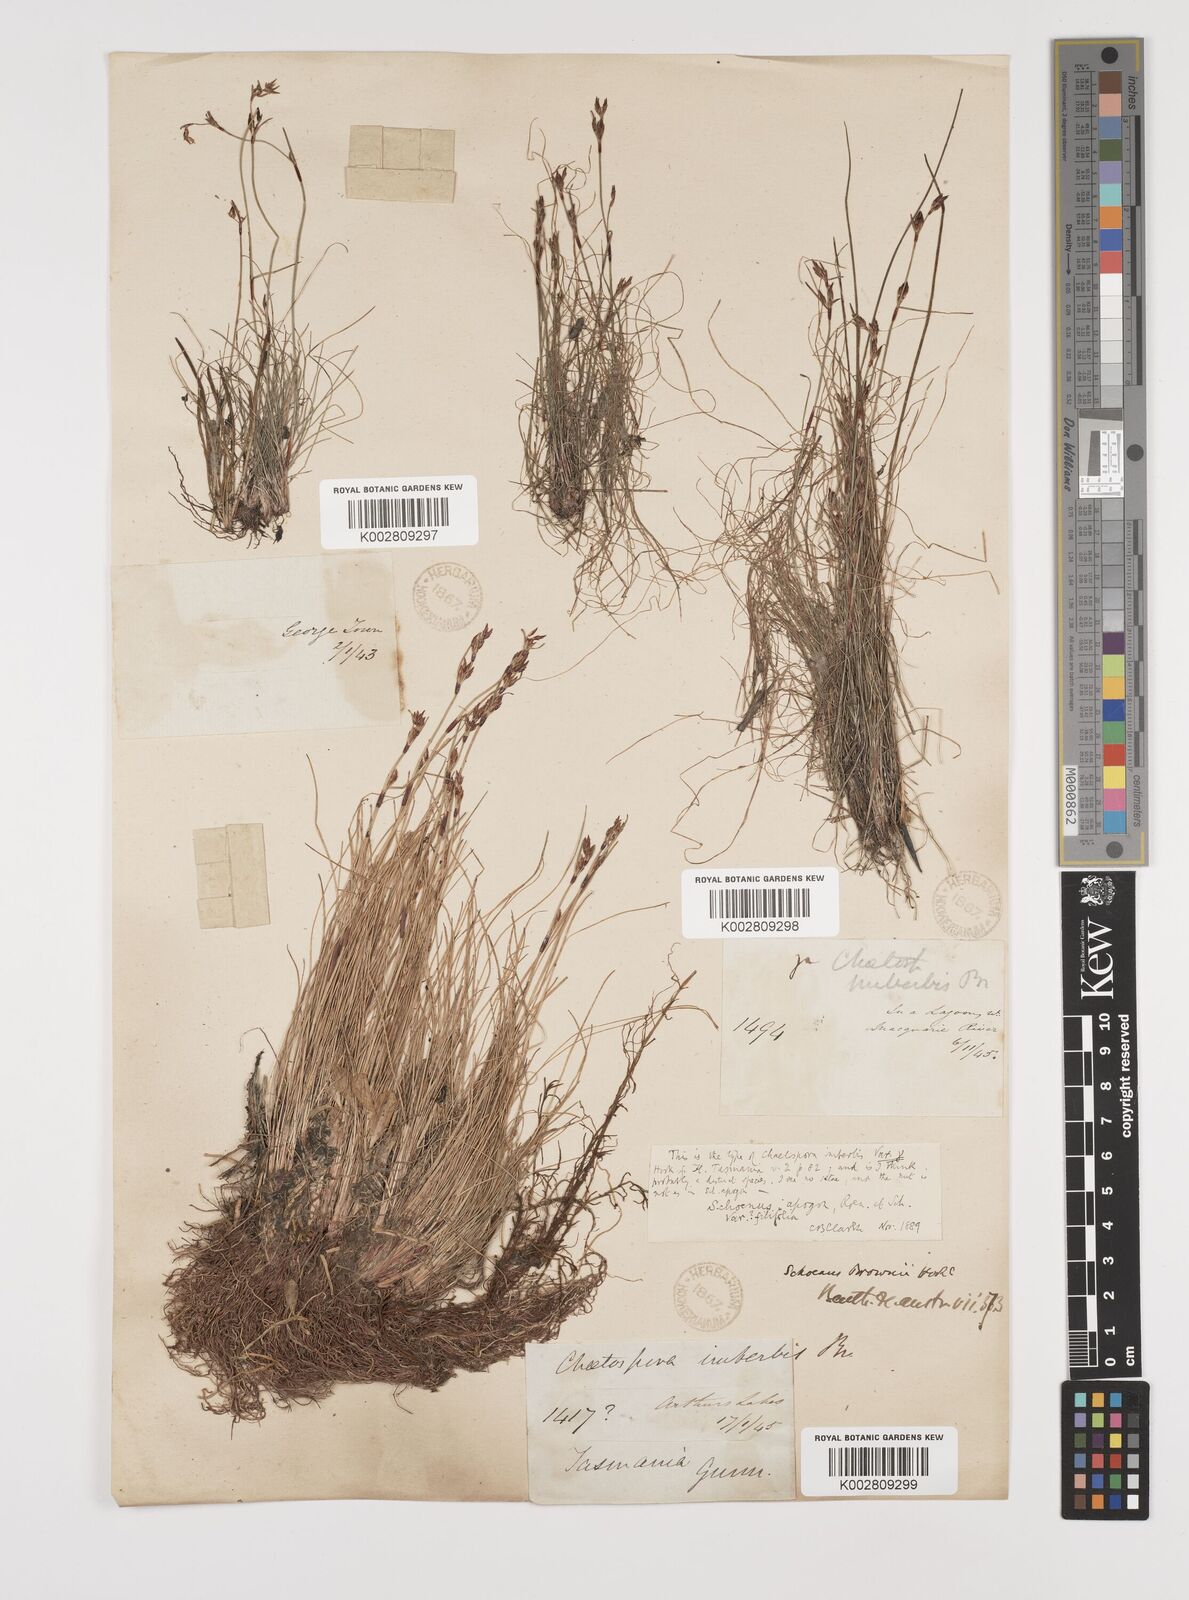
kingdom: Plantae
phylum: Tracheophyta
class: Liliopsida
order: Poales
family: Cyperaceae
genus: Schoenus
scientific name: Schoenus apogon
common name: Smooth bogrush
